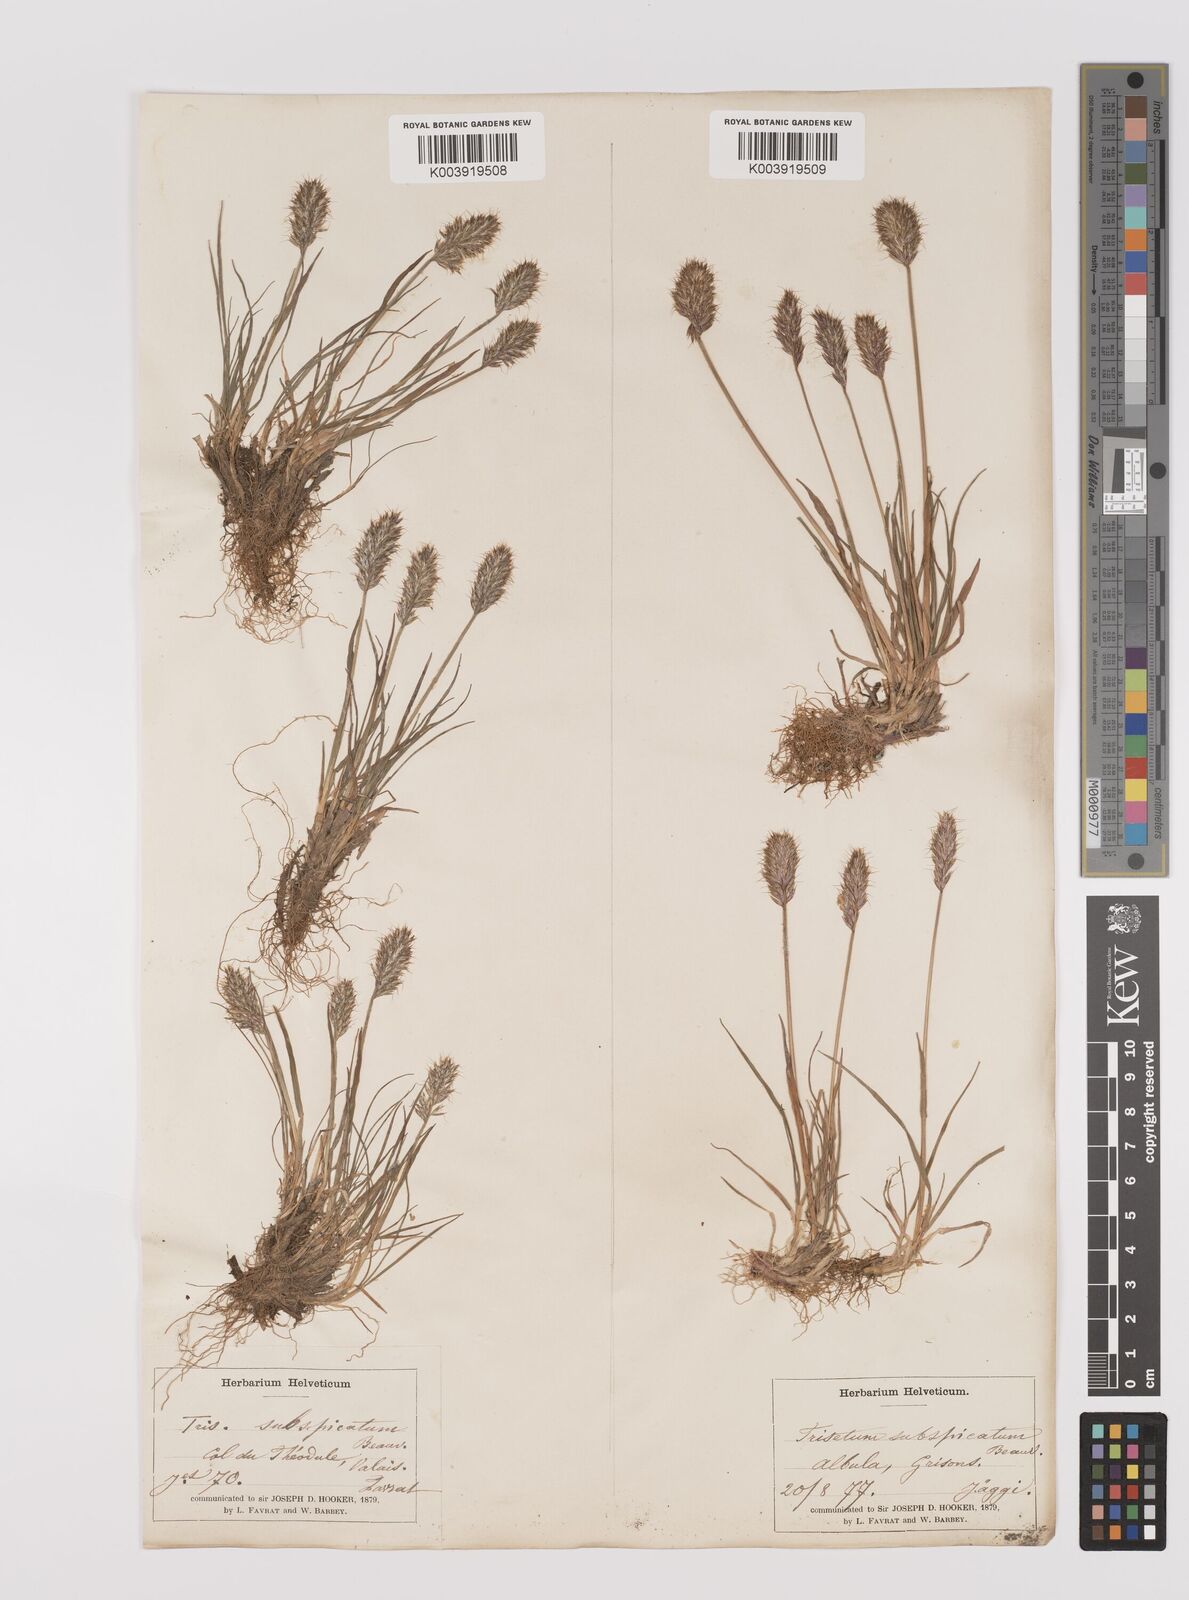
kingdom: Plantae
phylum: Tracheophyta
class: Liliopsida
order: Poales
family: Poaceae
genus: Koeleria
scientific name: Koeleria spicata
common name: Mountain trisetum
